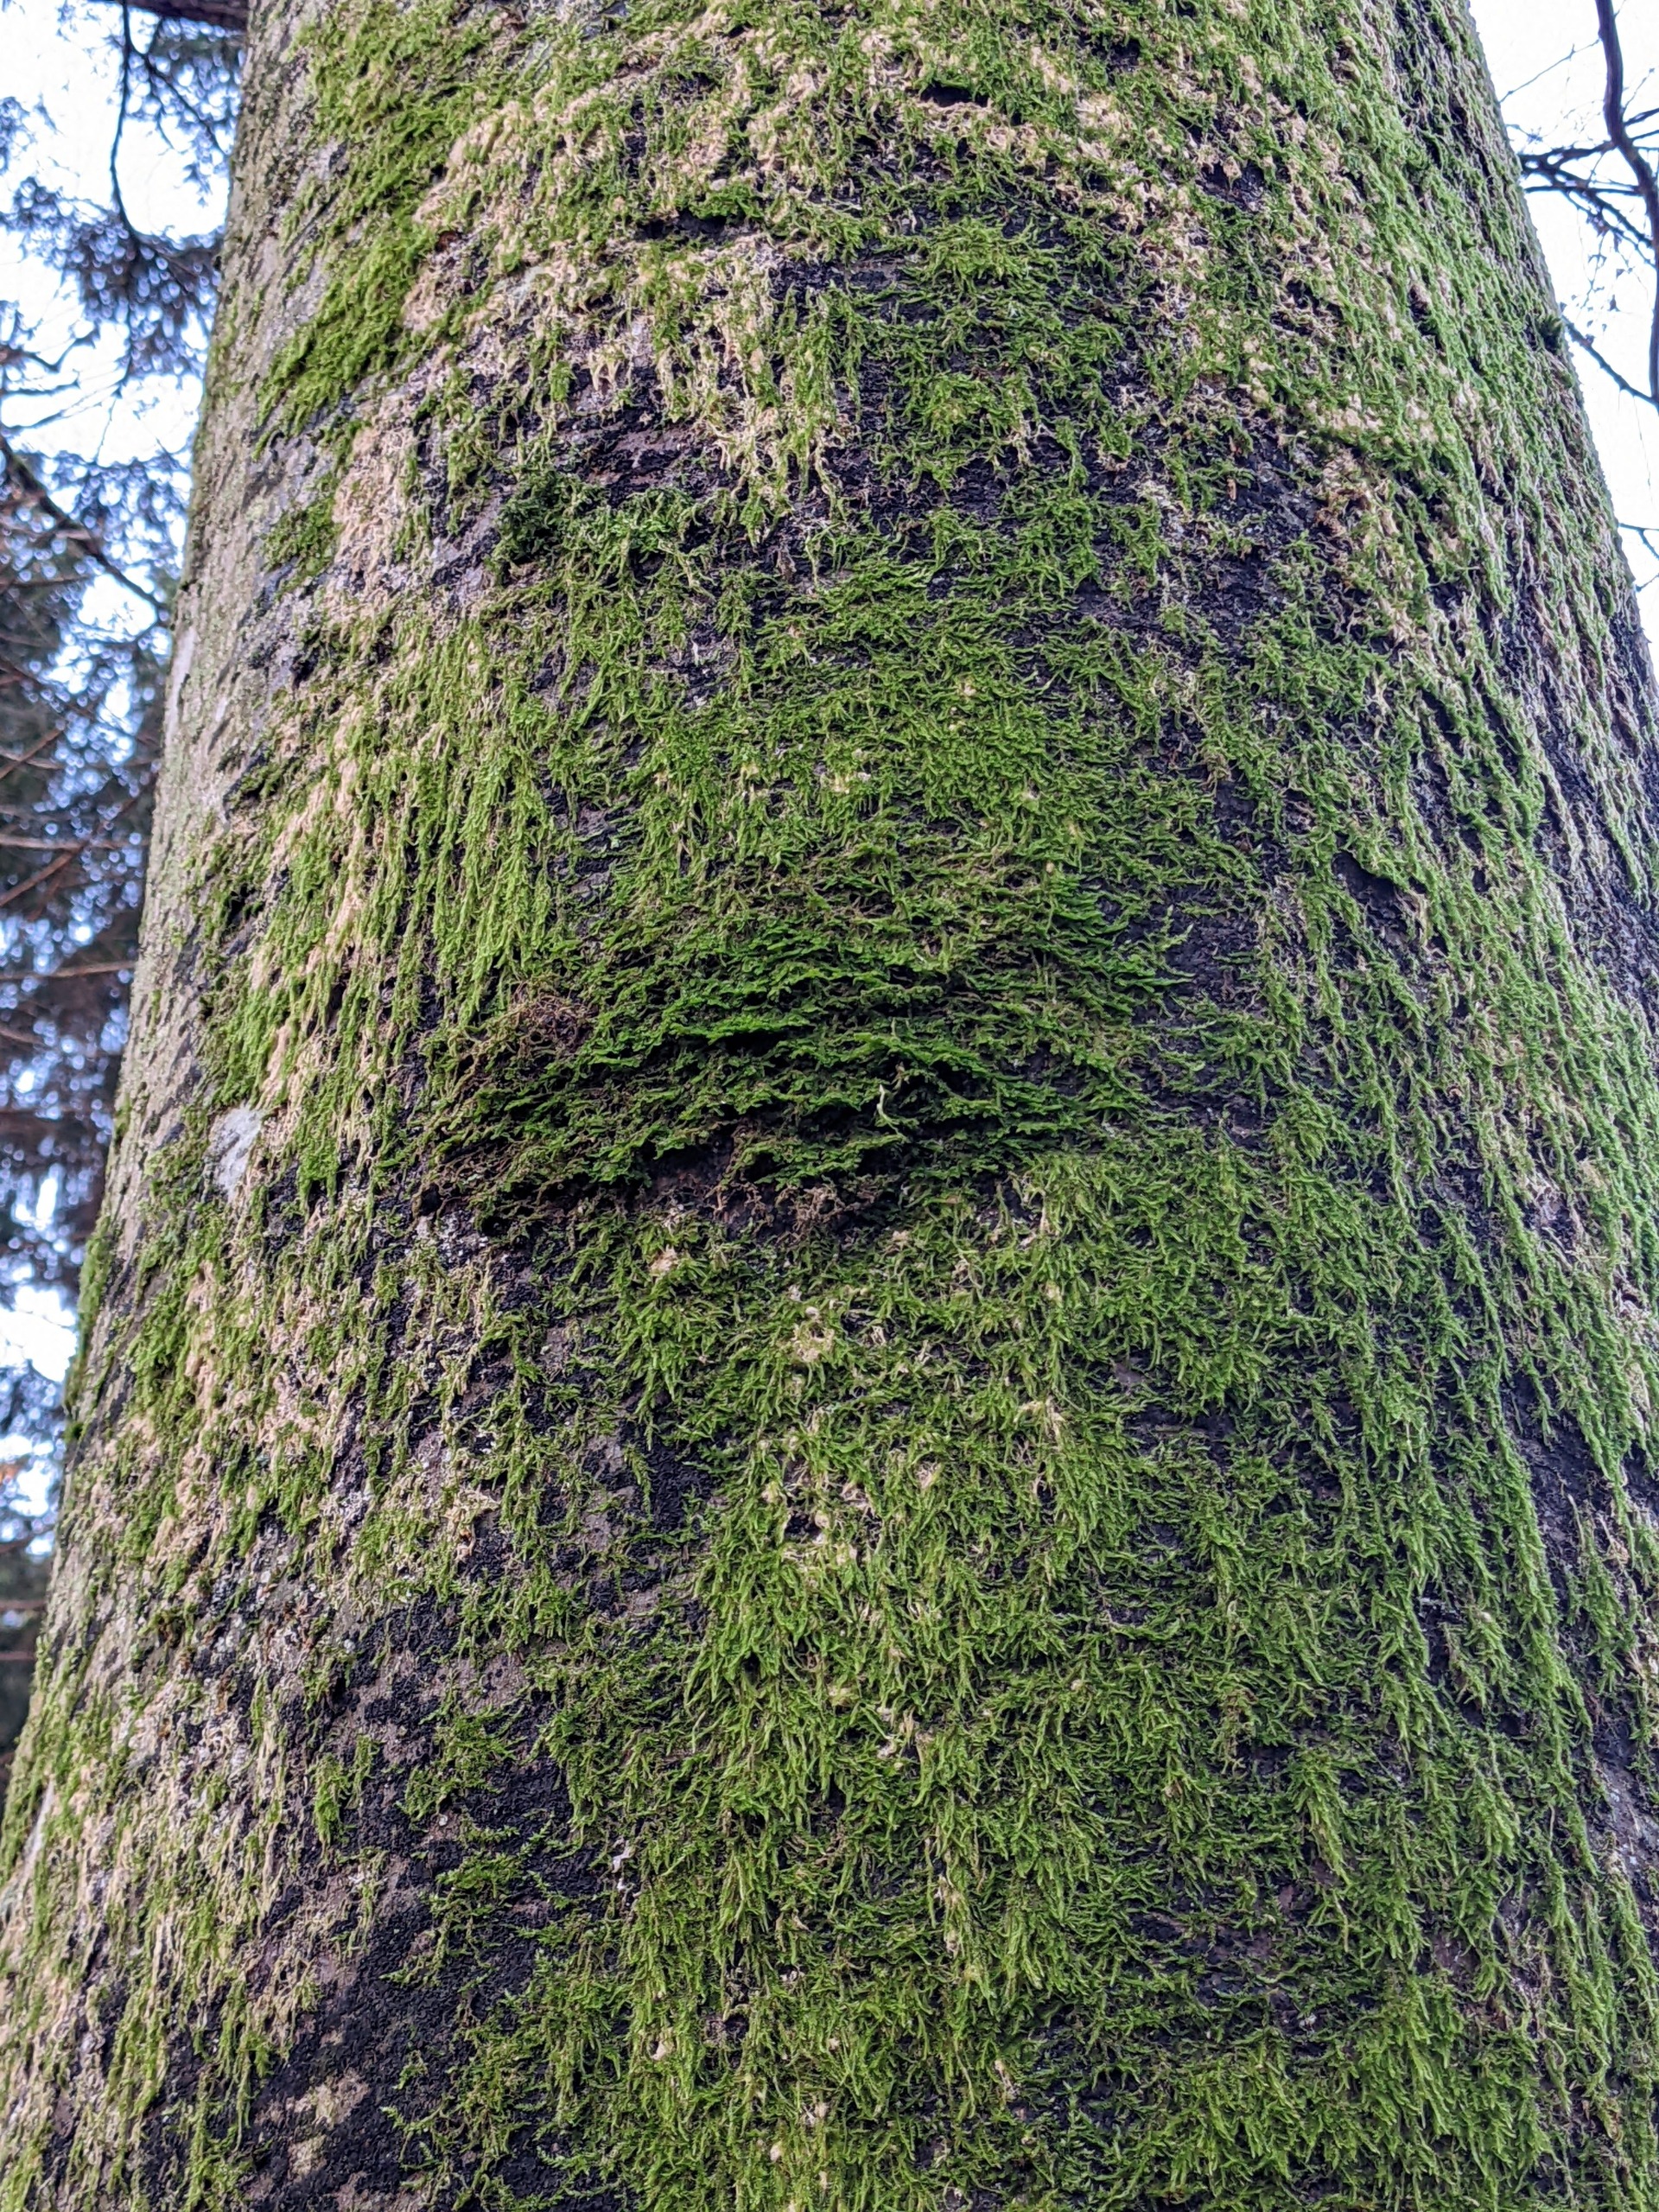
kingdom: Plantae
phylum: Marchantiophyta
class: Jungermanniopsida
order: Porellales
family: Porellaceae
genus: Porella
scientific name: Porella platyphylla
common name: Almindelig skælryg
